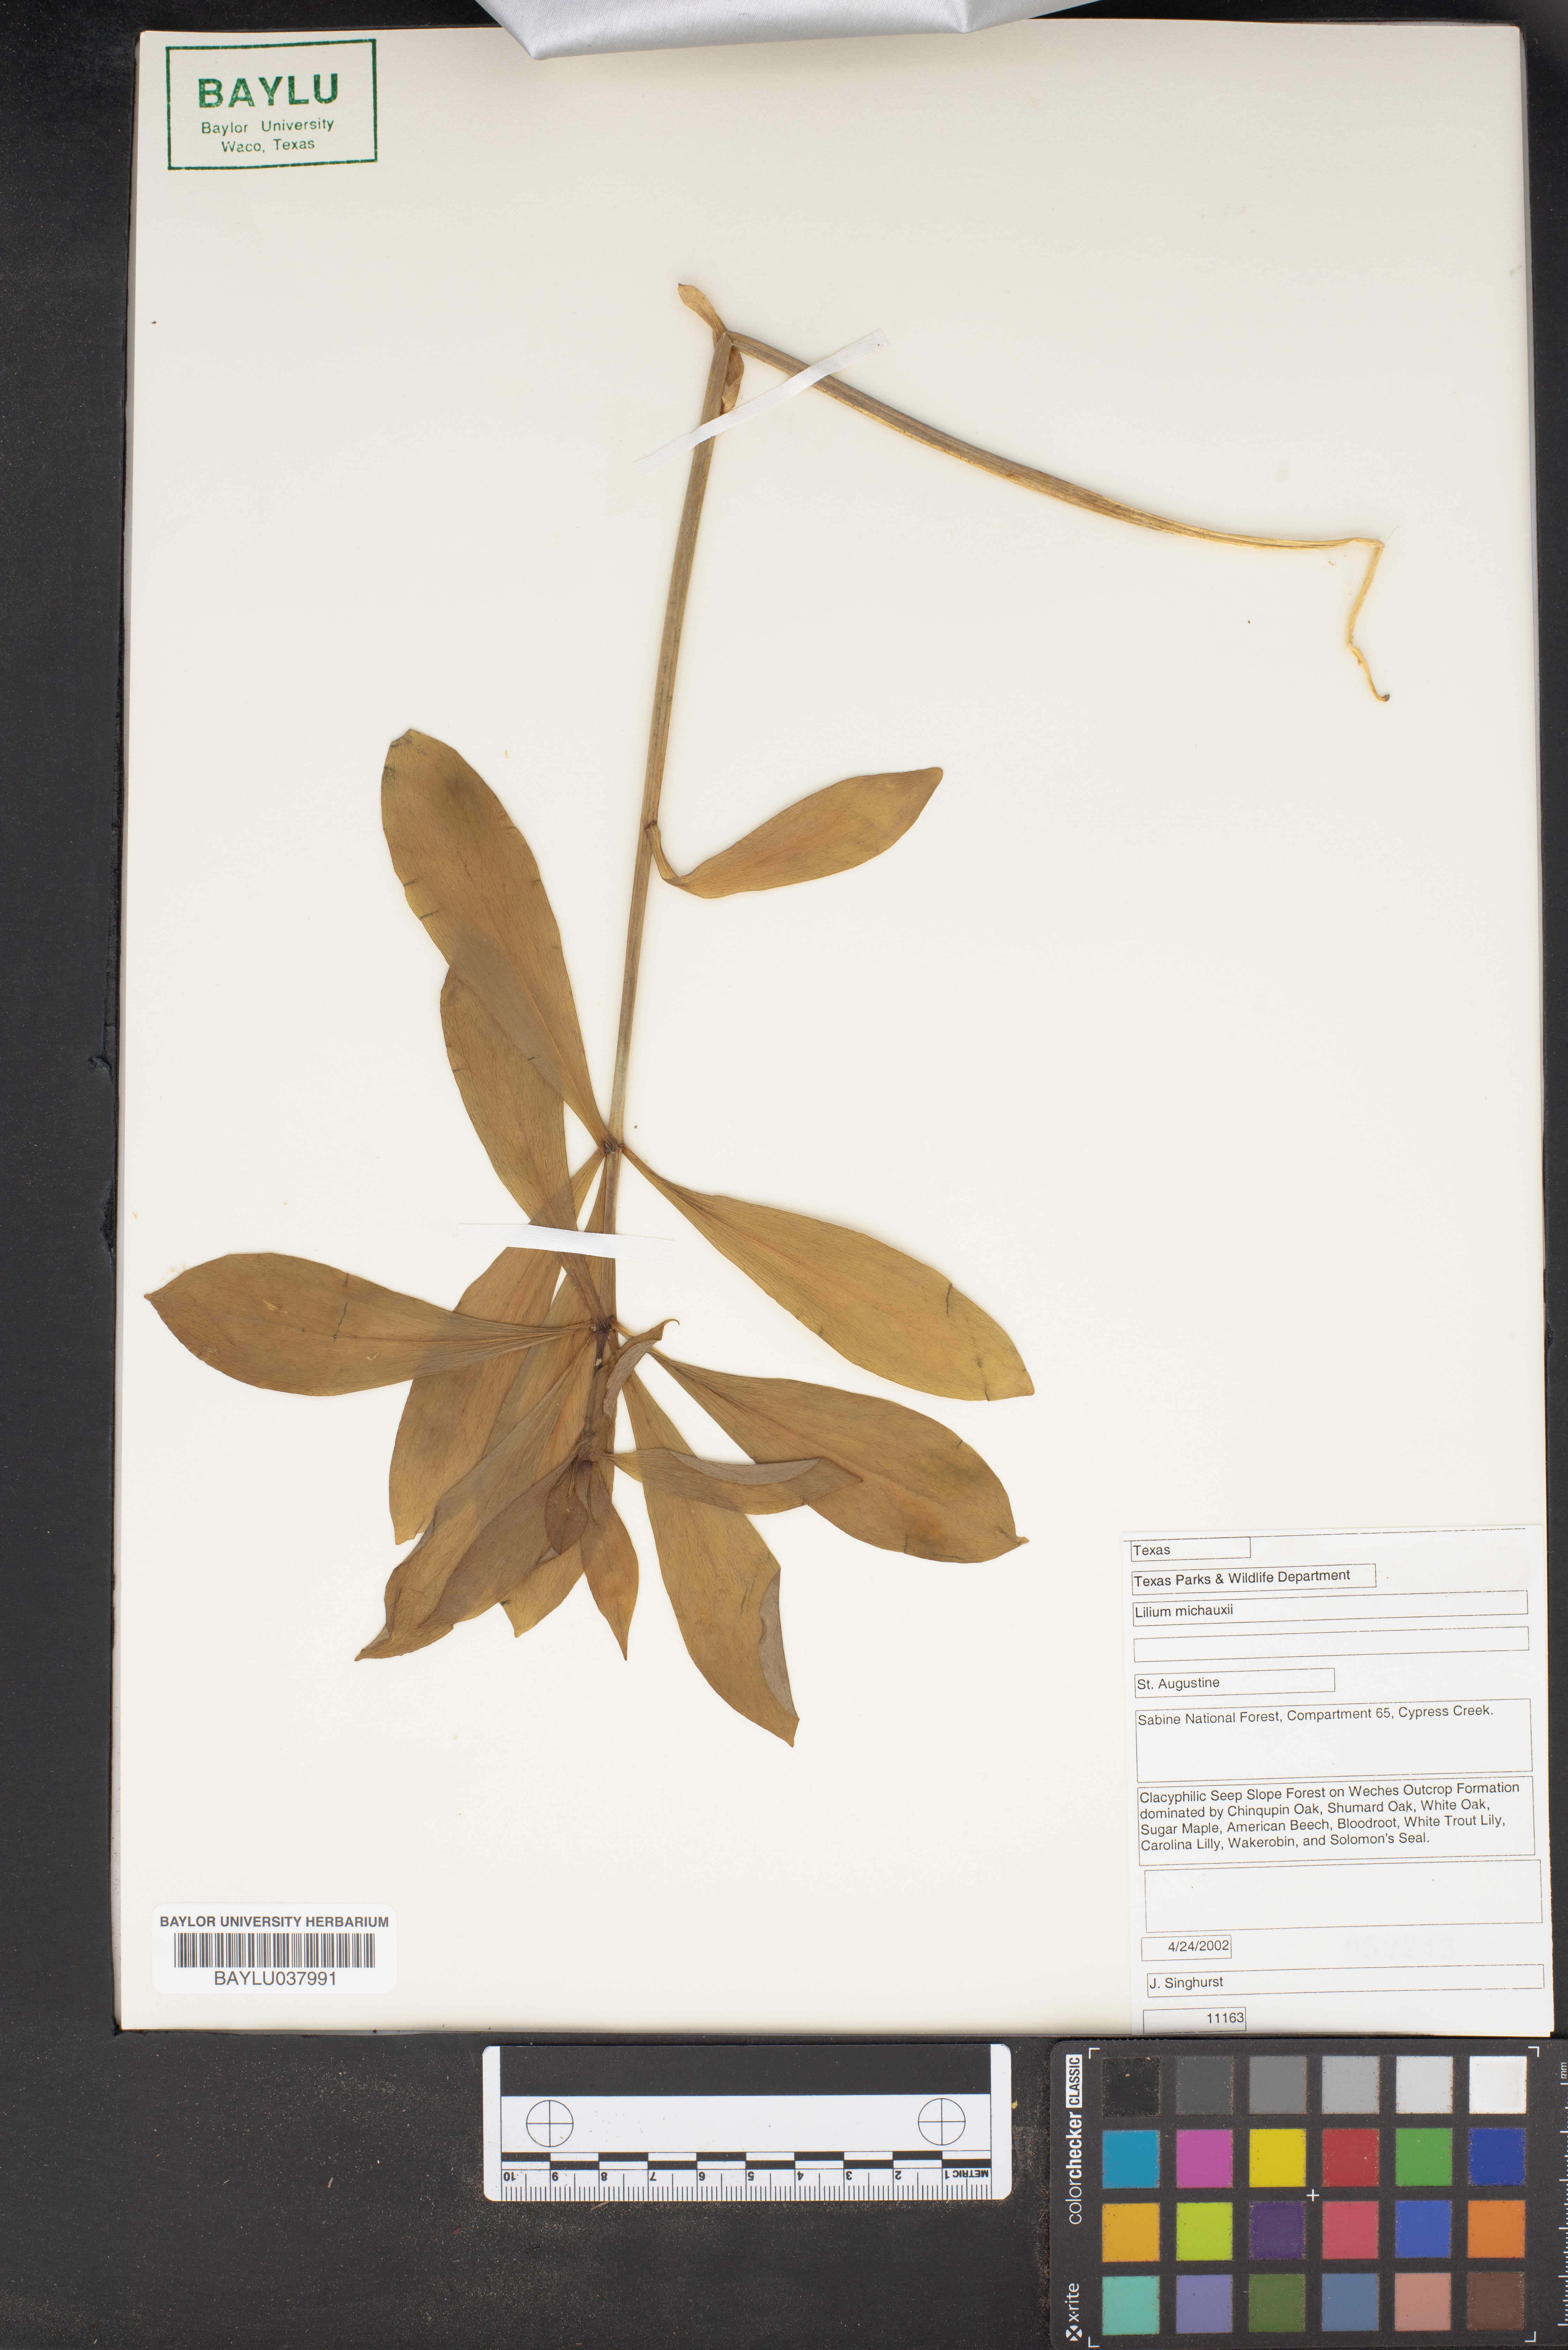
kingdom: Plantae
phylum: Tracheophyta
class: Liliopsida
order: Liliales
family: Liliaceae
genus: Lilium
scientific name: Lilium michauxii
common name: Carolina lily
